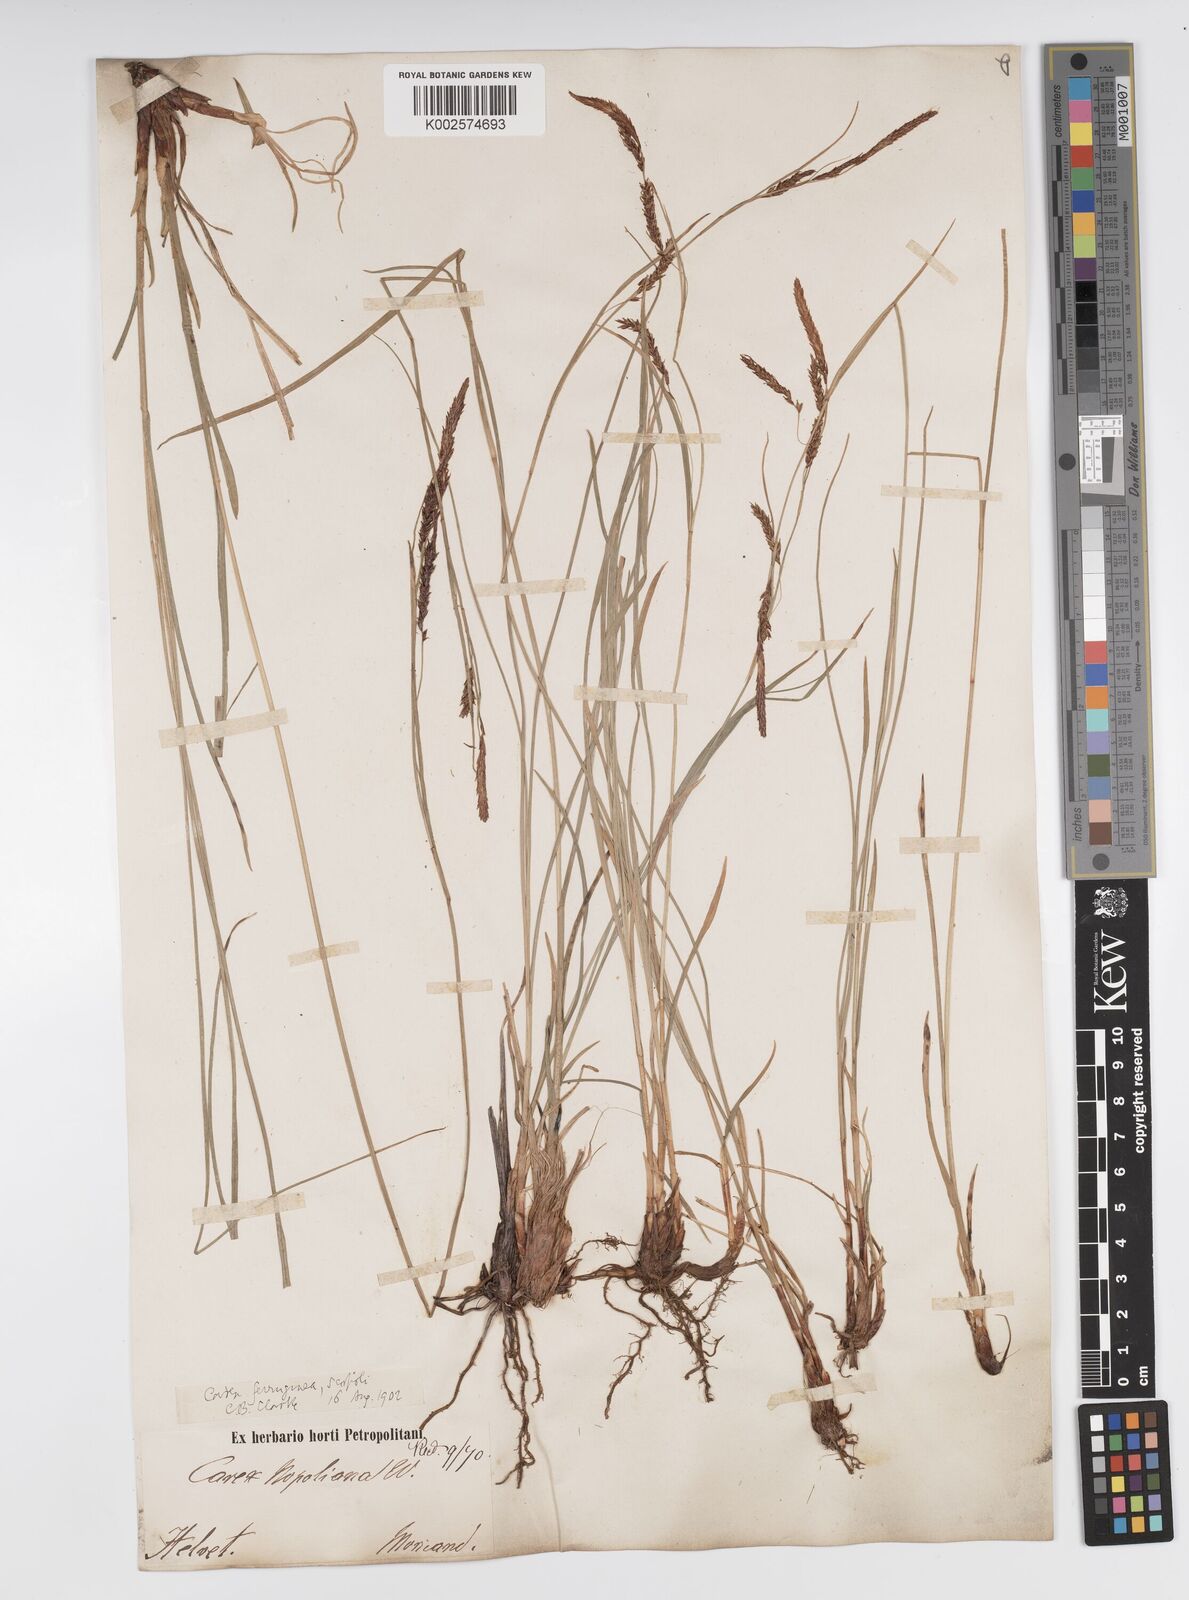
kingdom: Plantae
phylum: Tracheophyta
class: Liliopsida
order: Poales
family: Cyperaceae
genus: Carex
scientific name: Carex ferruginea
